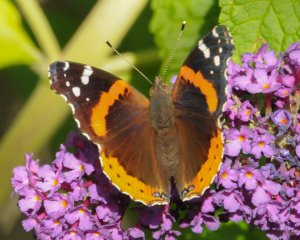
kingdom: Animalia
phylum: Arthropoda
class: Insecta
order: Lepidoptera
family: Nymphalidae
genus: Vanessa
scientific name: Vanessa atalanta
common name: Red Admiral
